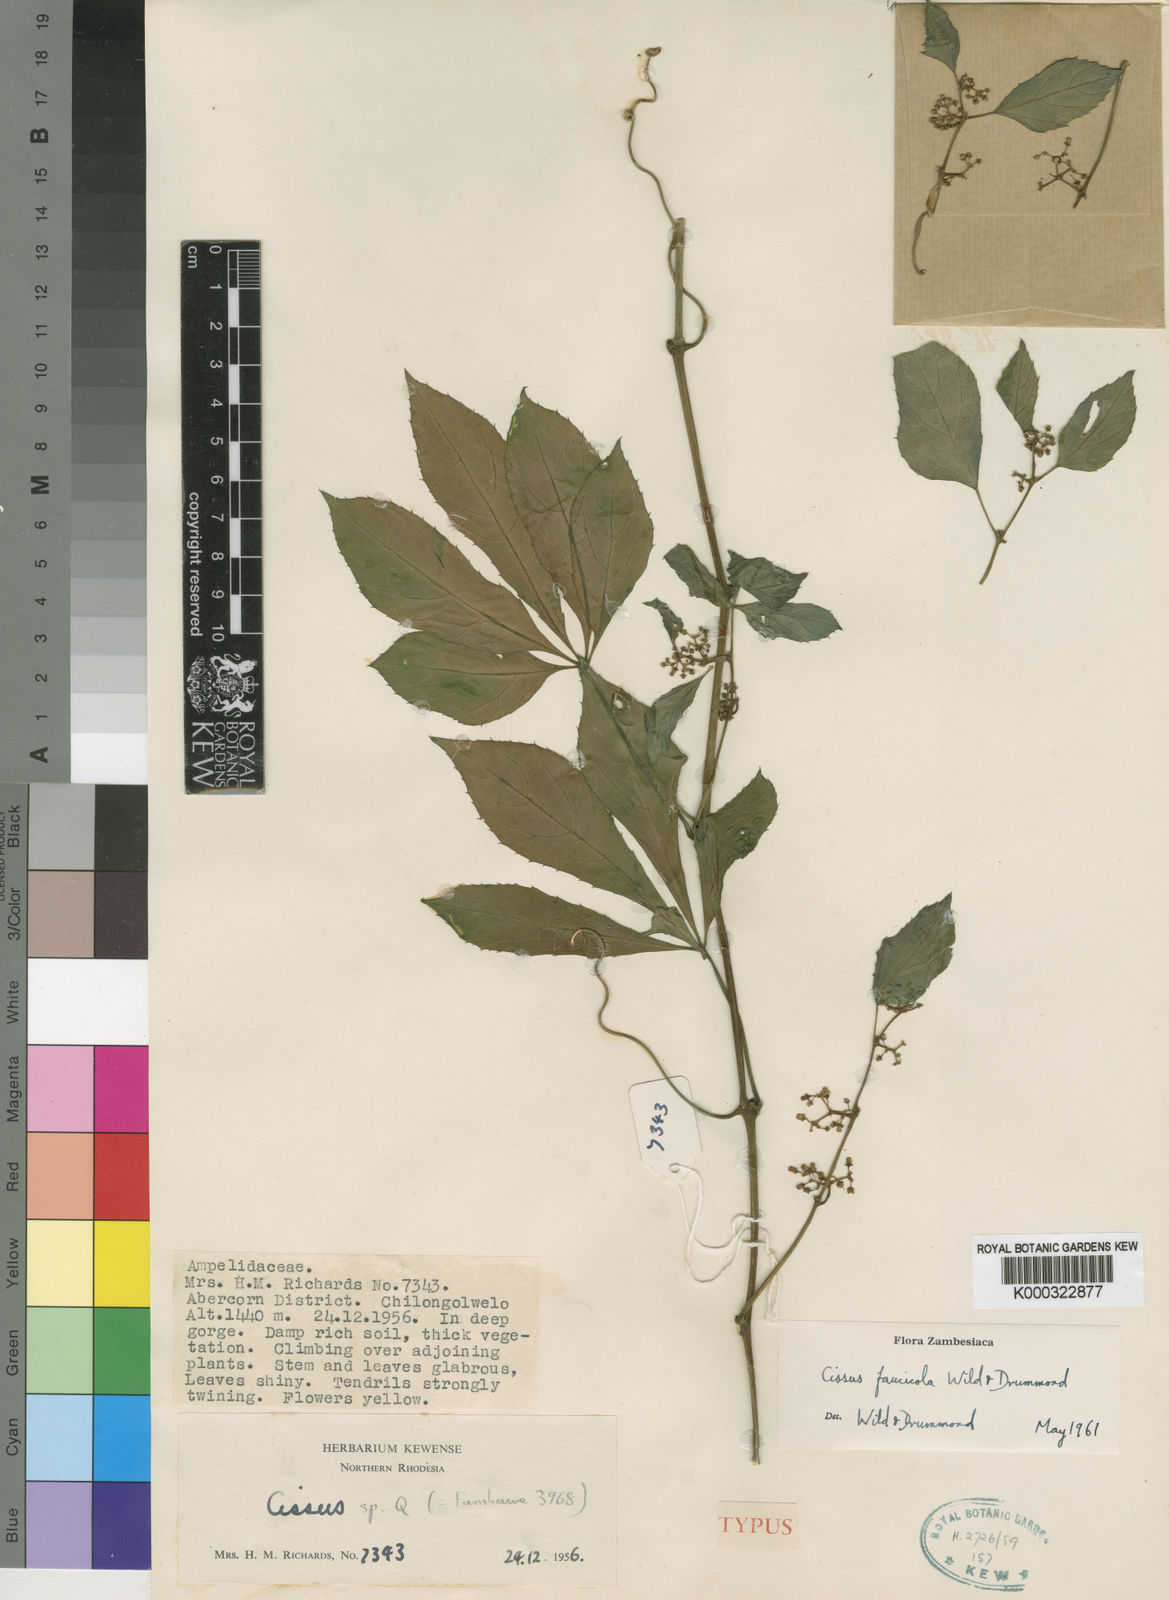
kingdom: Plantae
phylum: Tracheophyta
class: Magnoliopsida
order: Vitales
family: Vitaceae
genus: Cissus
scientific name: Cissus faucicola
